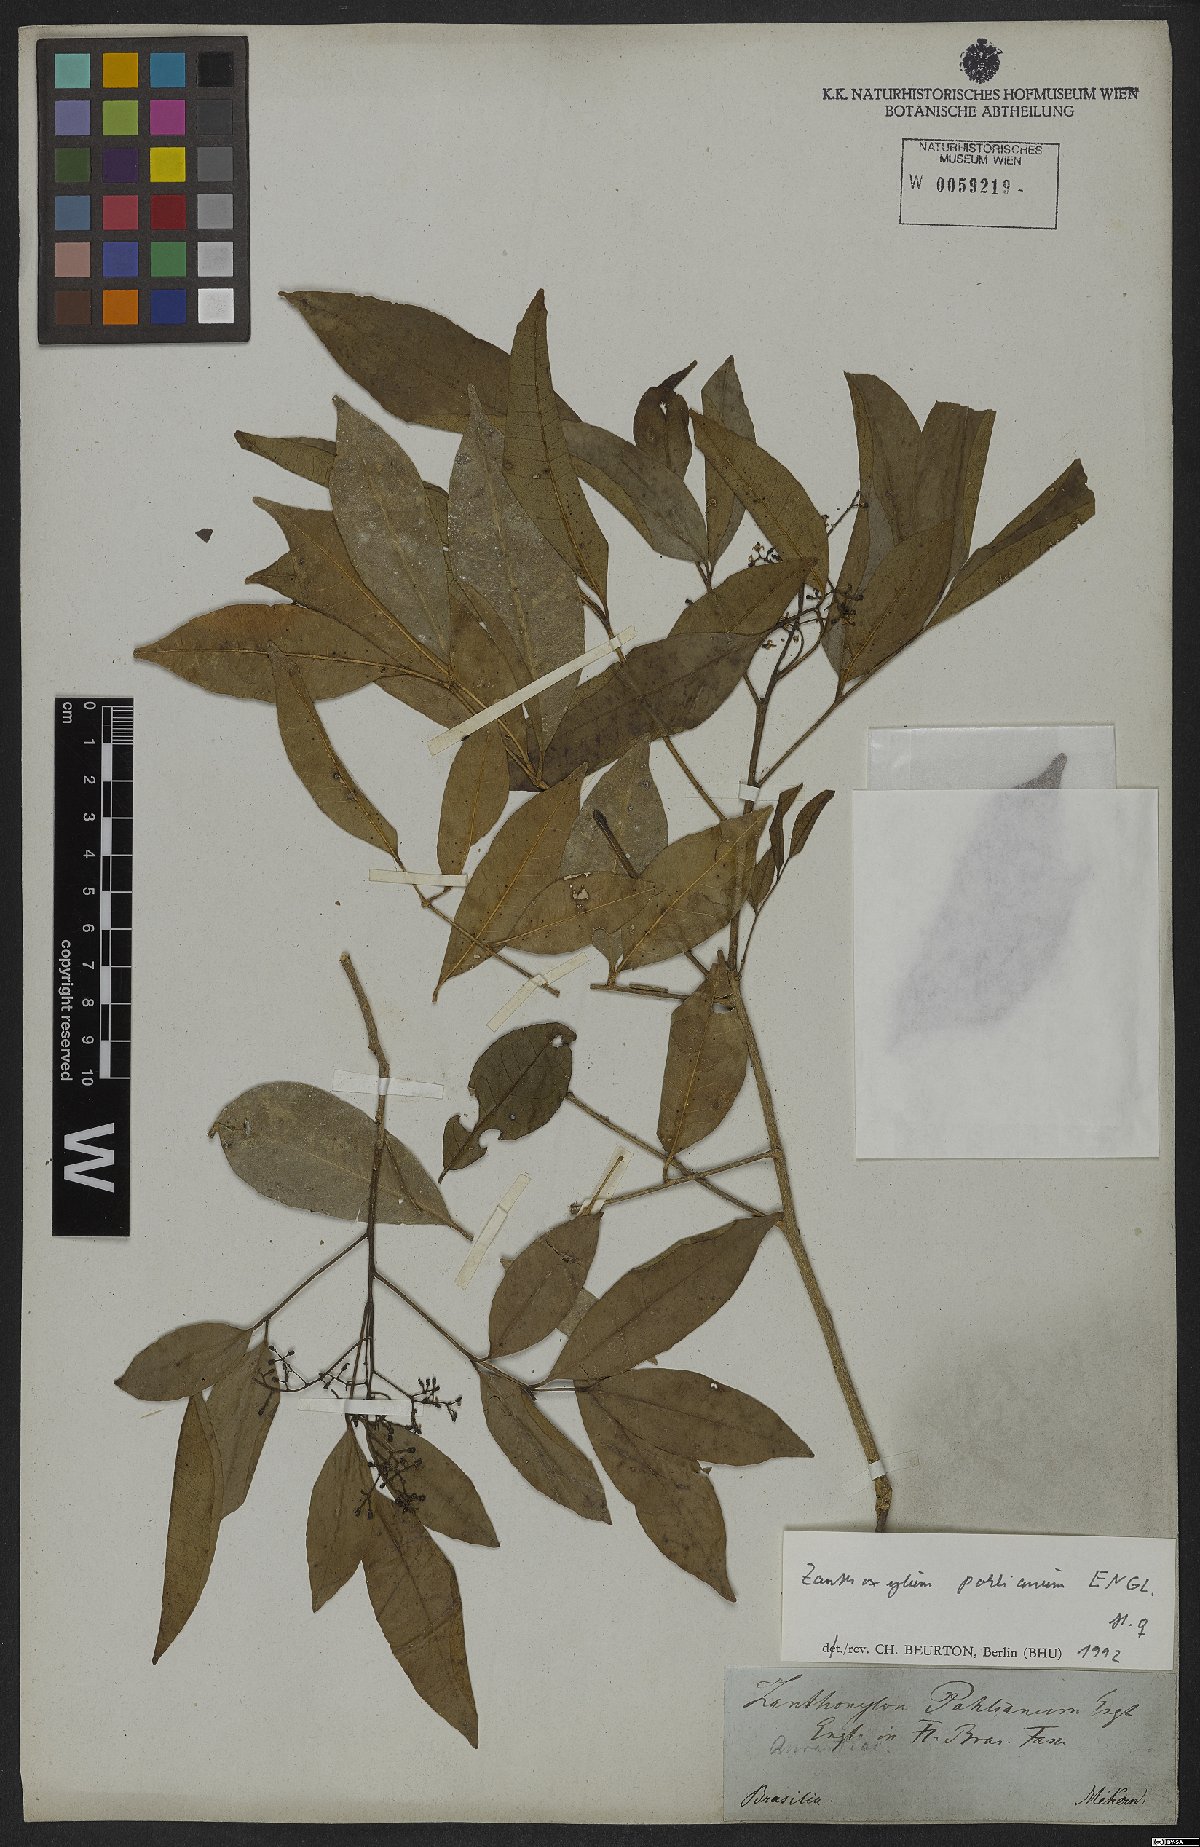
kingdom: Plantae
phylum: Tracheophyta
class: Magnoliopsida
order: Sapindales
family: Rutaceae
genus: Zanthoxylum
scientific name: Zanthoxylum monogynum
